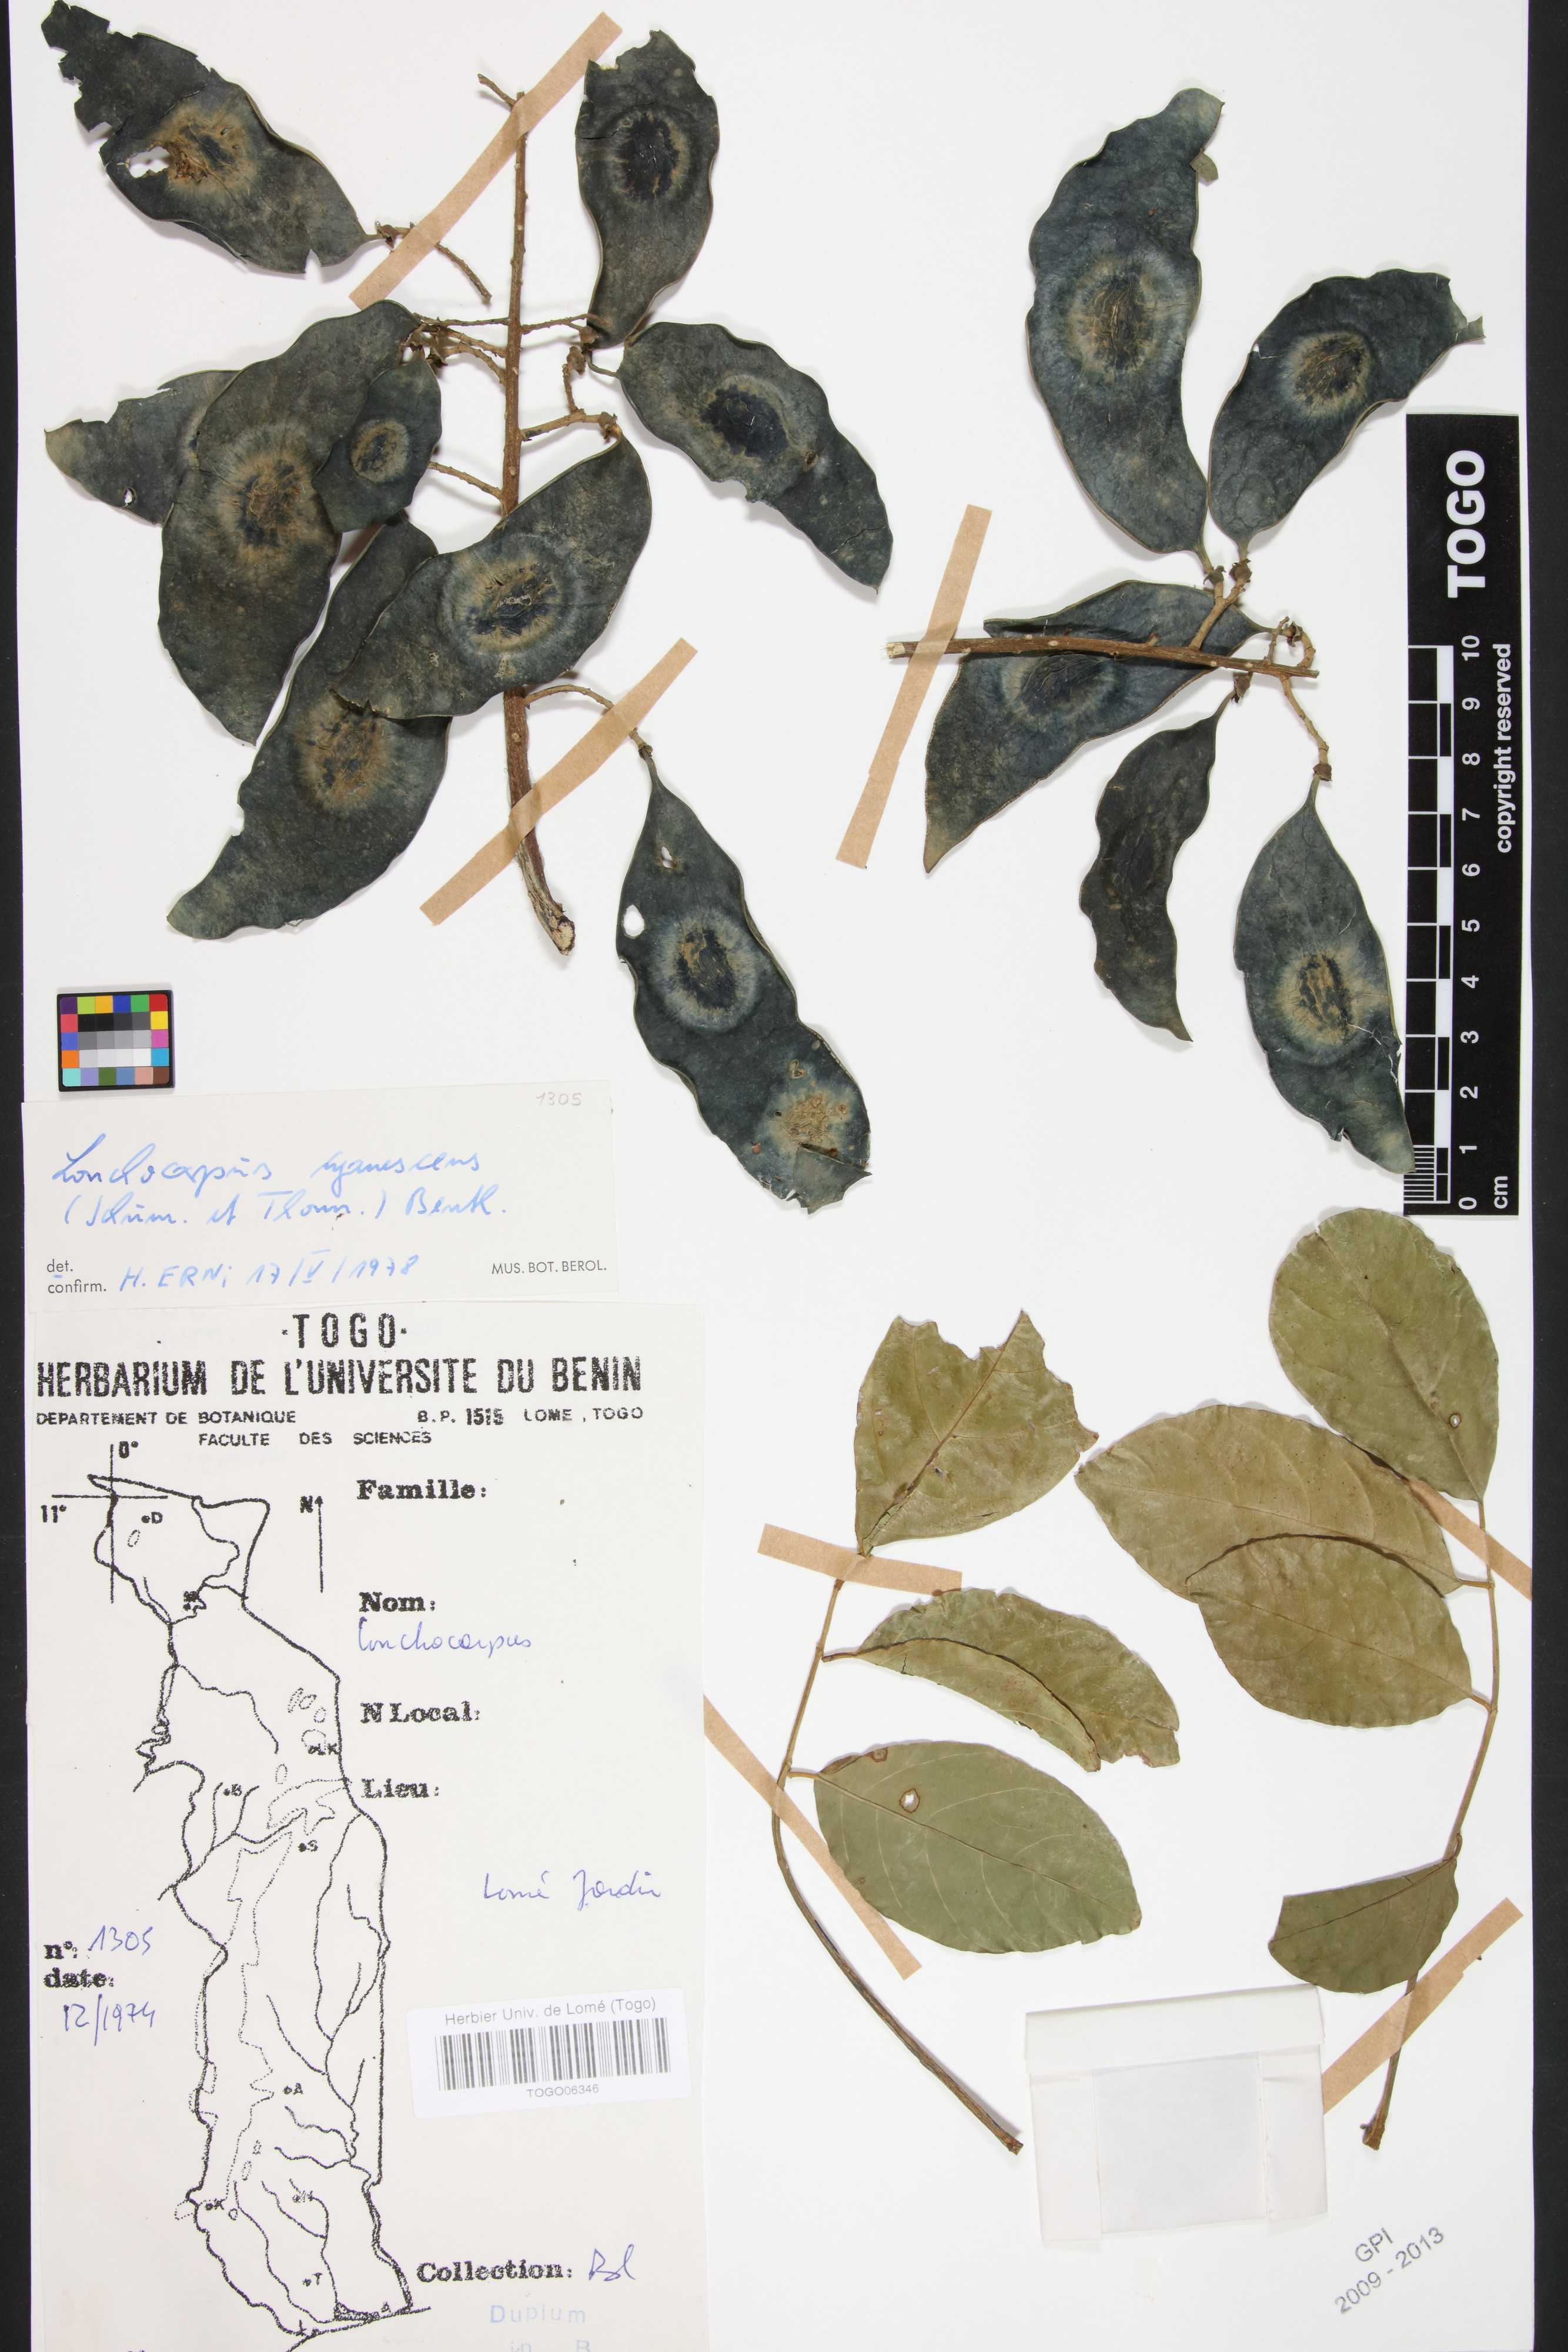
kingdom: Plantae
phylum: Tracheophyta
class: Magnoliopsida
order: Fabales
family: Fabaceae
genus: Philenoptera
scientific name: Philenoptera cyanescens
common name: West african-indigo
